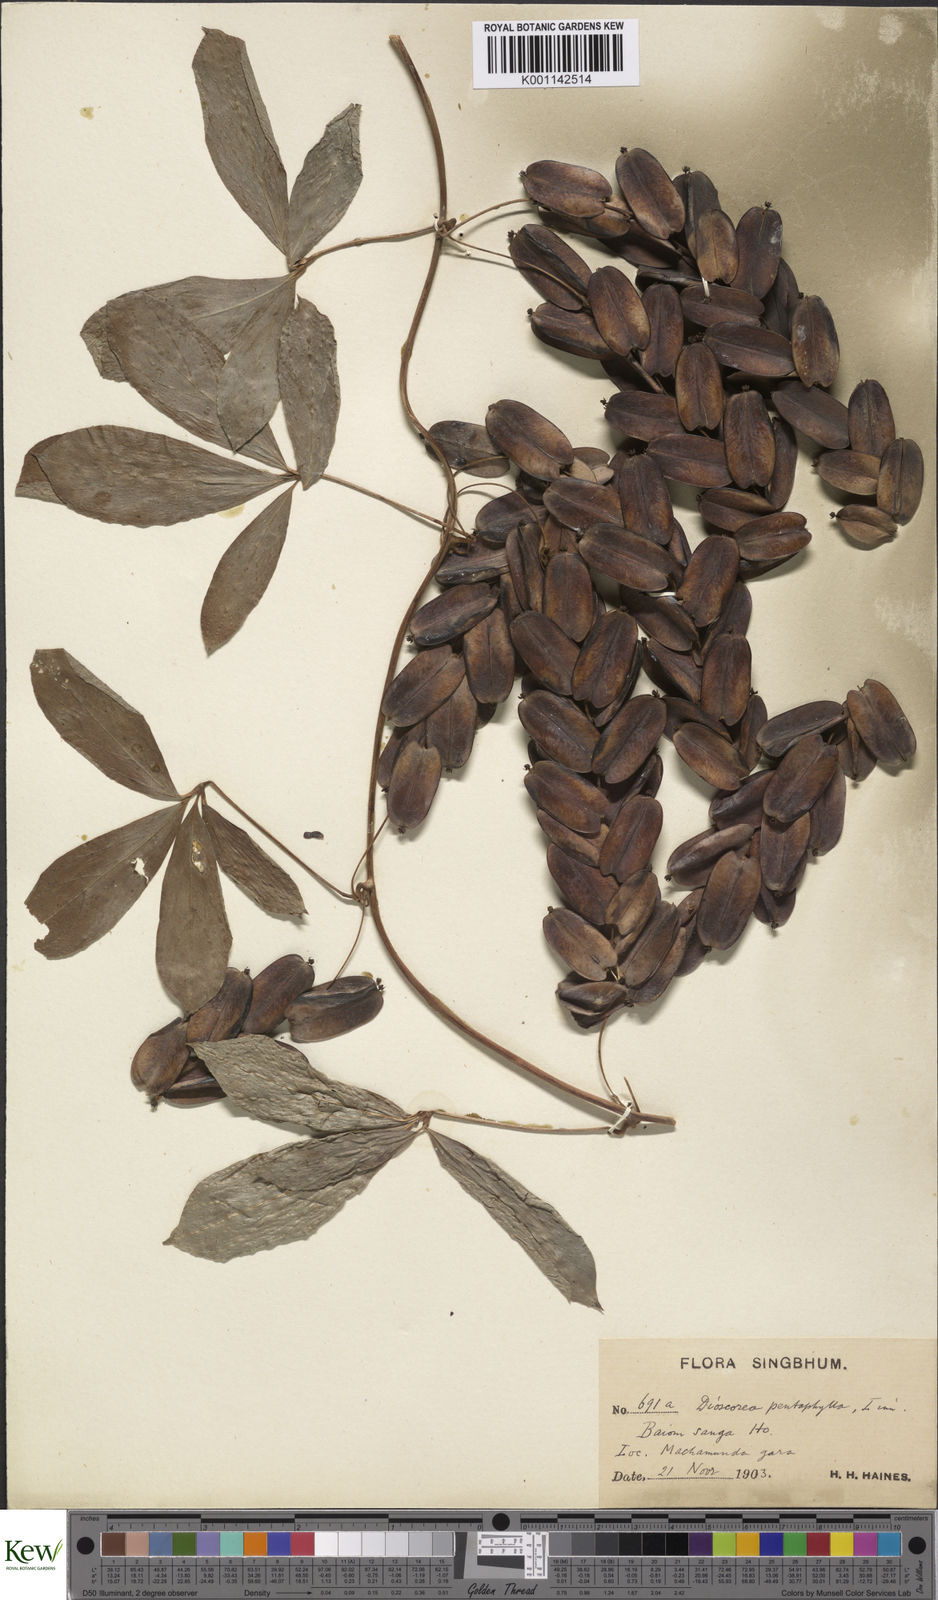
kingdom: Plantae
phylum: Tracheophyta
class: Liliopsida
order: Dioscoreales
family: Dioscoreaceae
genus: Dioscorea
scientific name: Dioscorea pentaphylla
